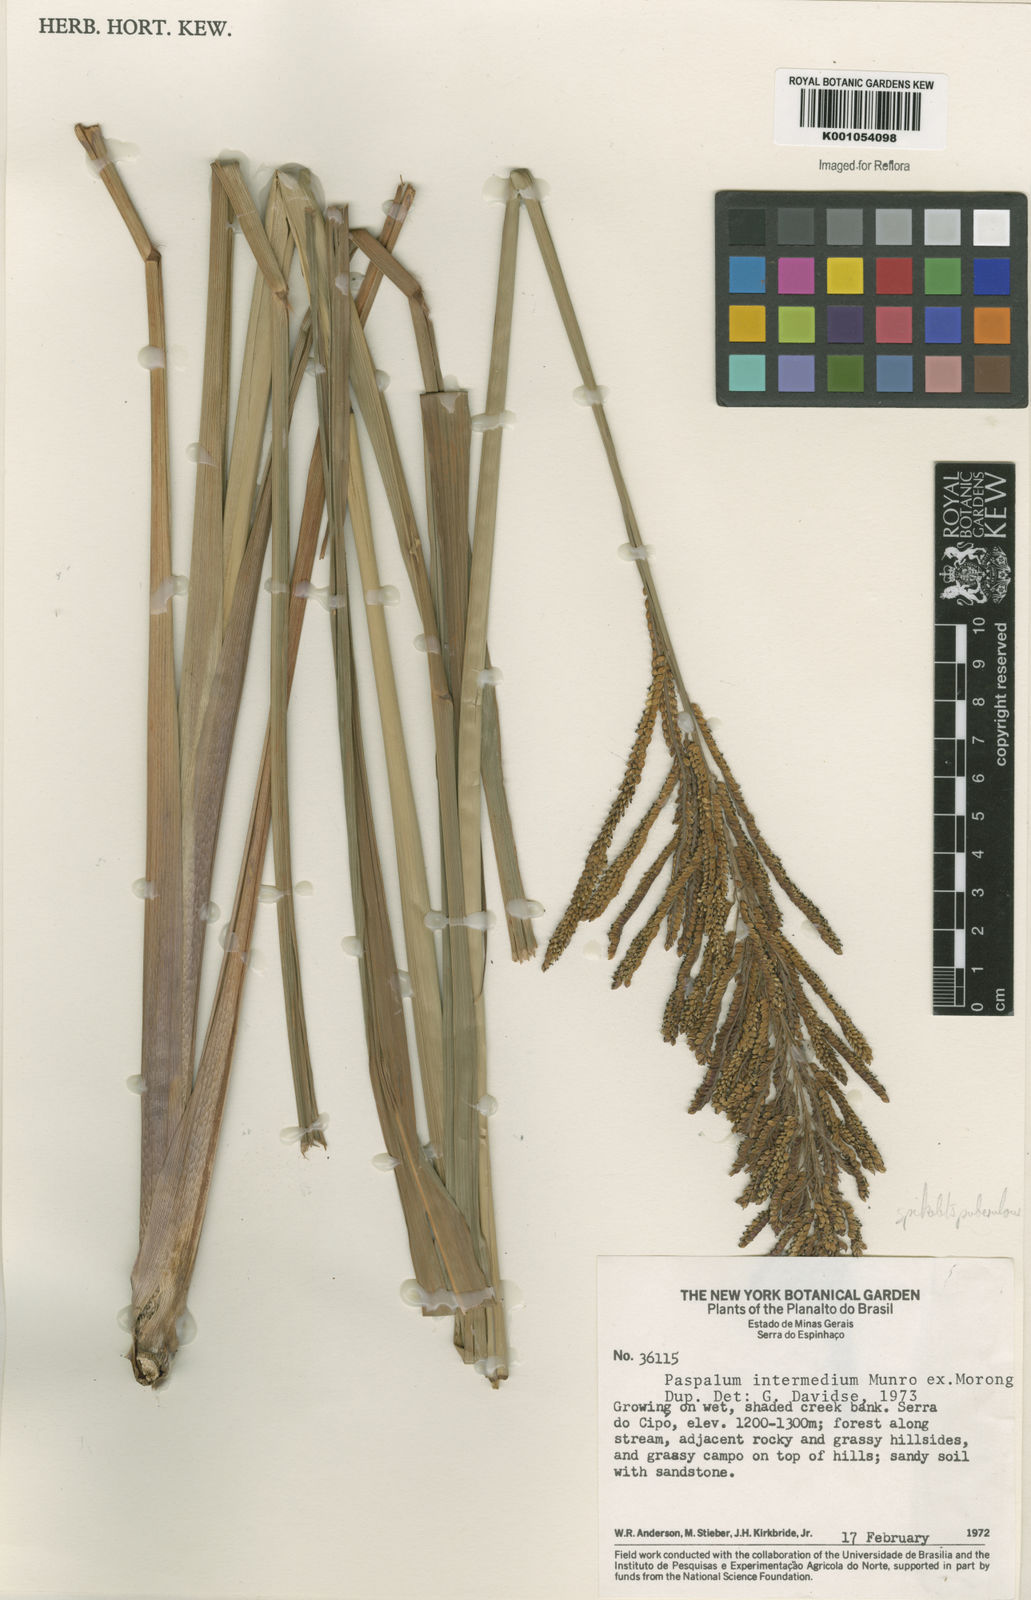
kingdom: Plantae
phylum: Tracheophyta
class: Liliopsida
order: Poales
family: Poaceae
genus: Paspalum
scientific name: Paspalum intermedium
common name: Intermediate paspalum
